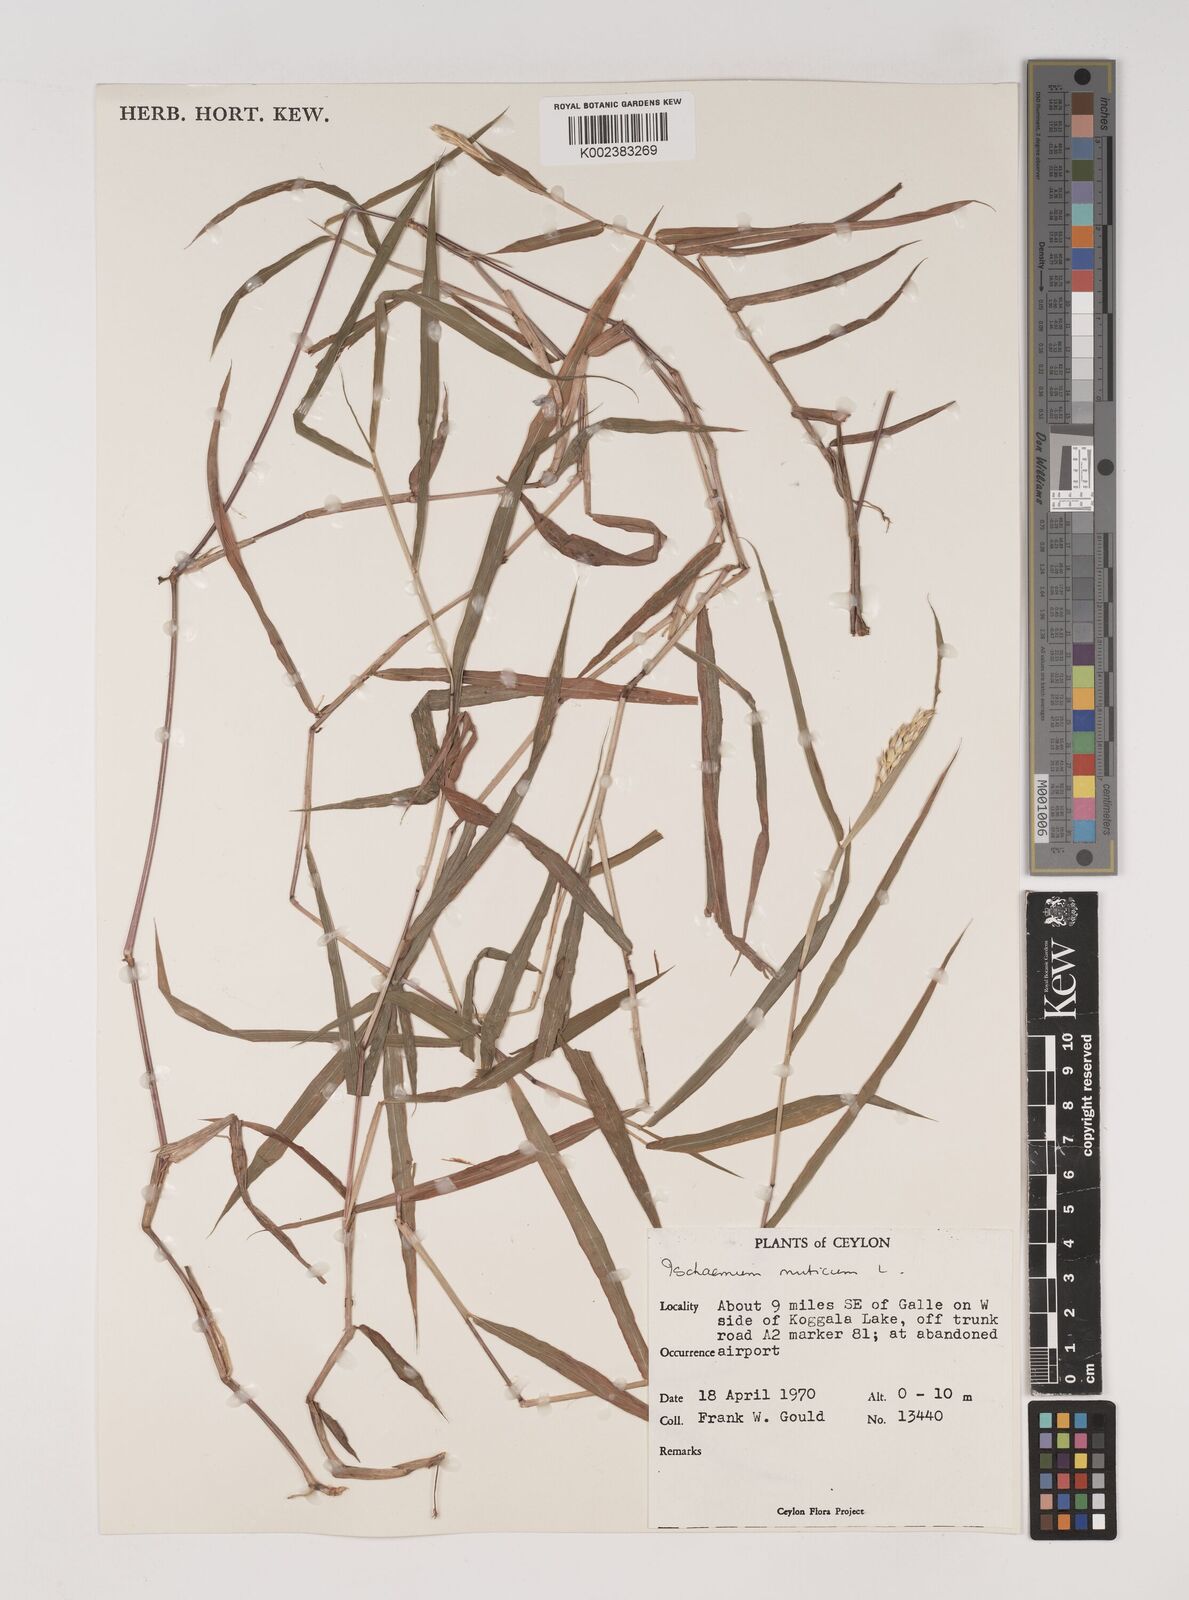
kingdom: Plantae
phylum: Tracheophyta
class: Liliopsida
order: Poales
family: Poaceae
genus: Ischaemum
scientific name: Ischaemum muticum
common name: Drought grass
